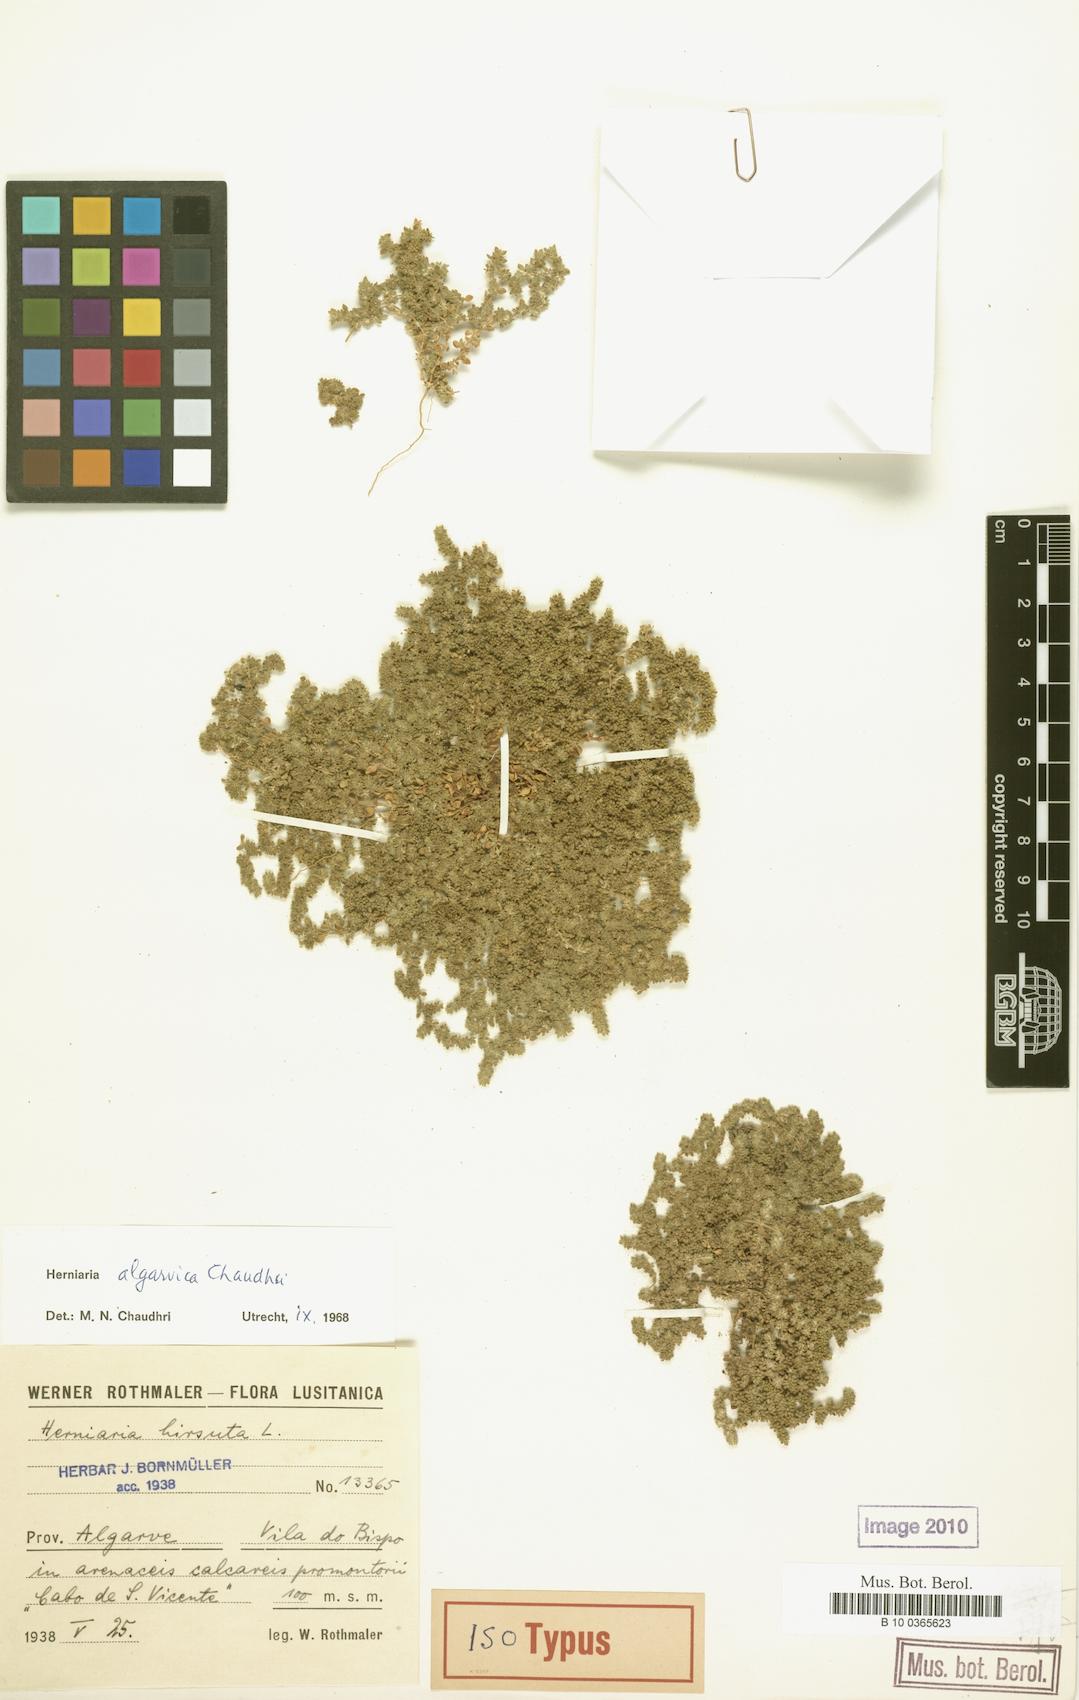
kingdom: Plantae
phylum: Tracheophyta
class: Magnoliopsida
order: Caryophyllales
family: Caryophyllaceae
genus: Herniaria
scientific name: Herniaria algarvica
